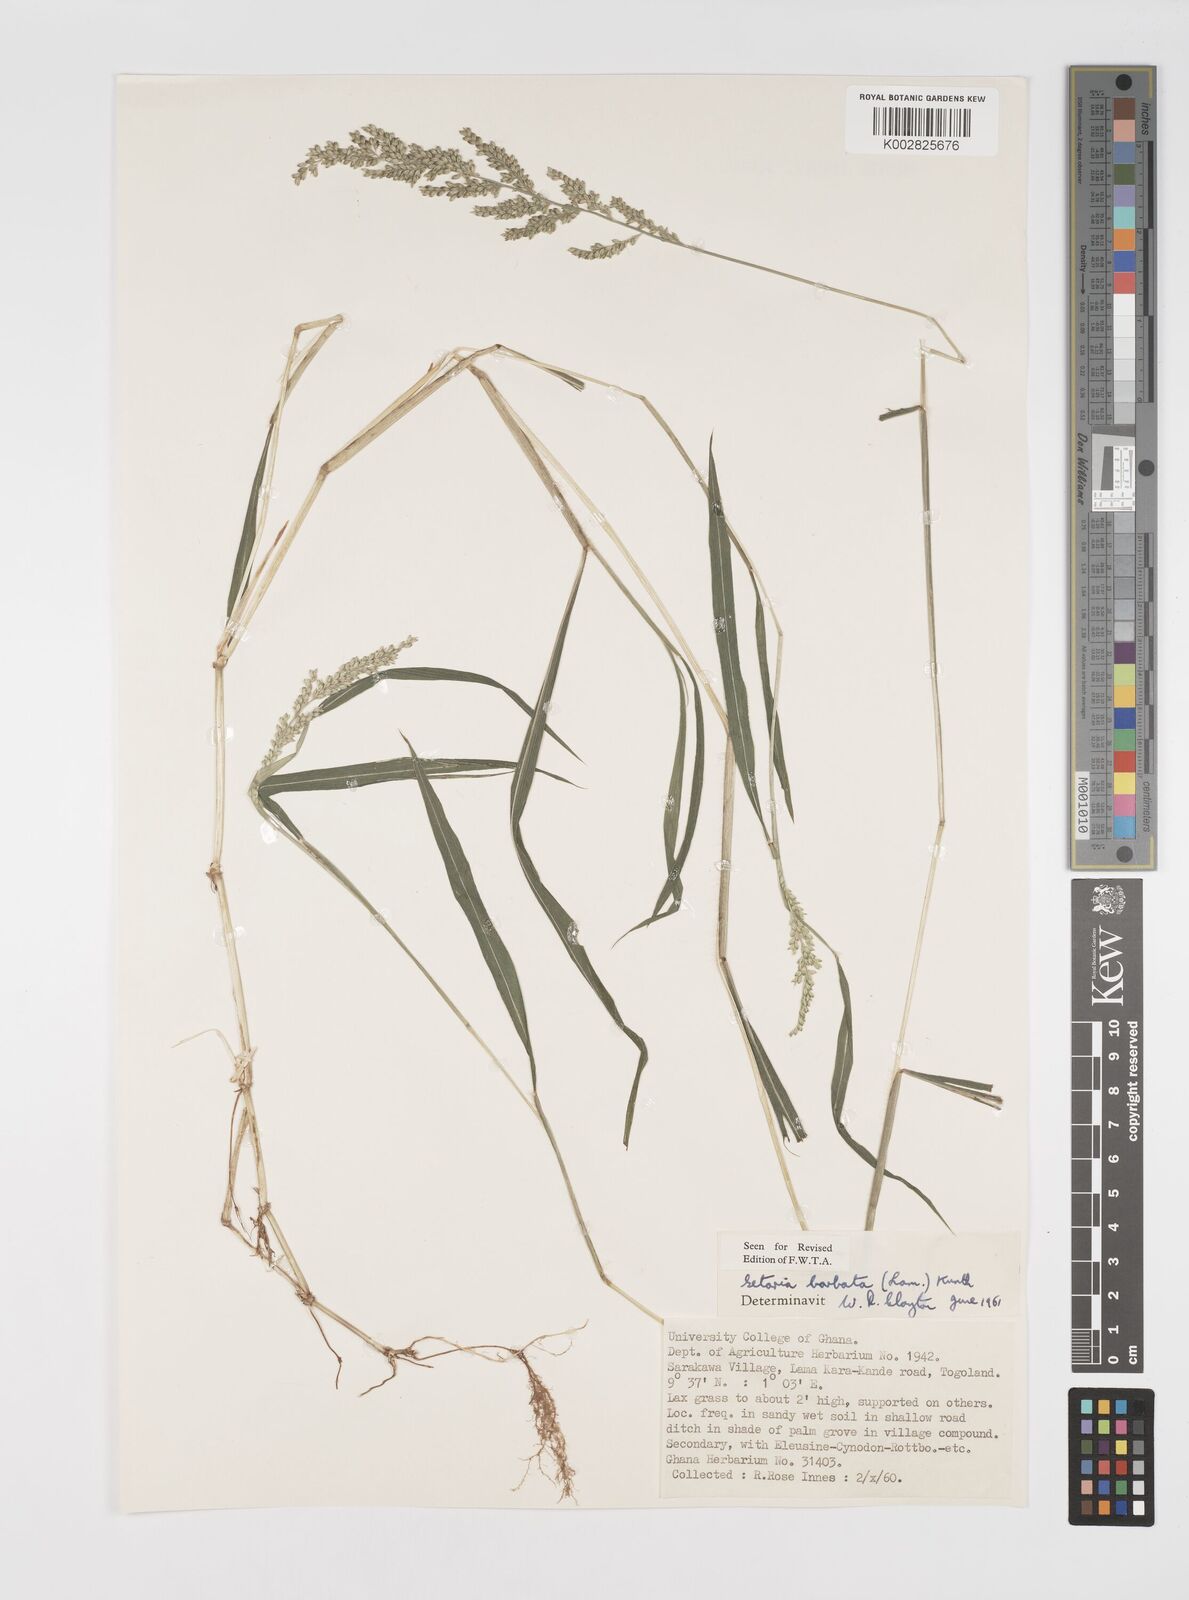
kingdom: Plantae
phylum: Tracheophyta
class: Liliopsida
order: Poales
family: Poaceae
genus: Setaria
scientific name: Setaria barbata
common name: East indian bristlegrass
